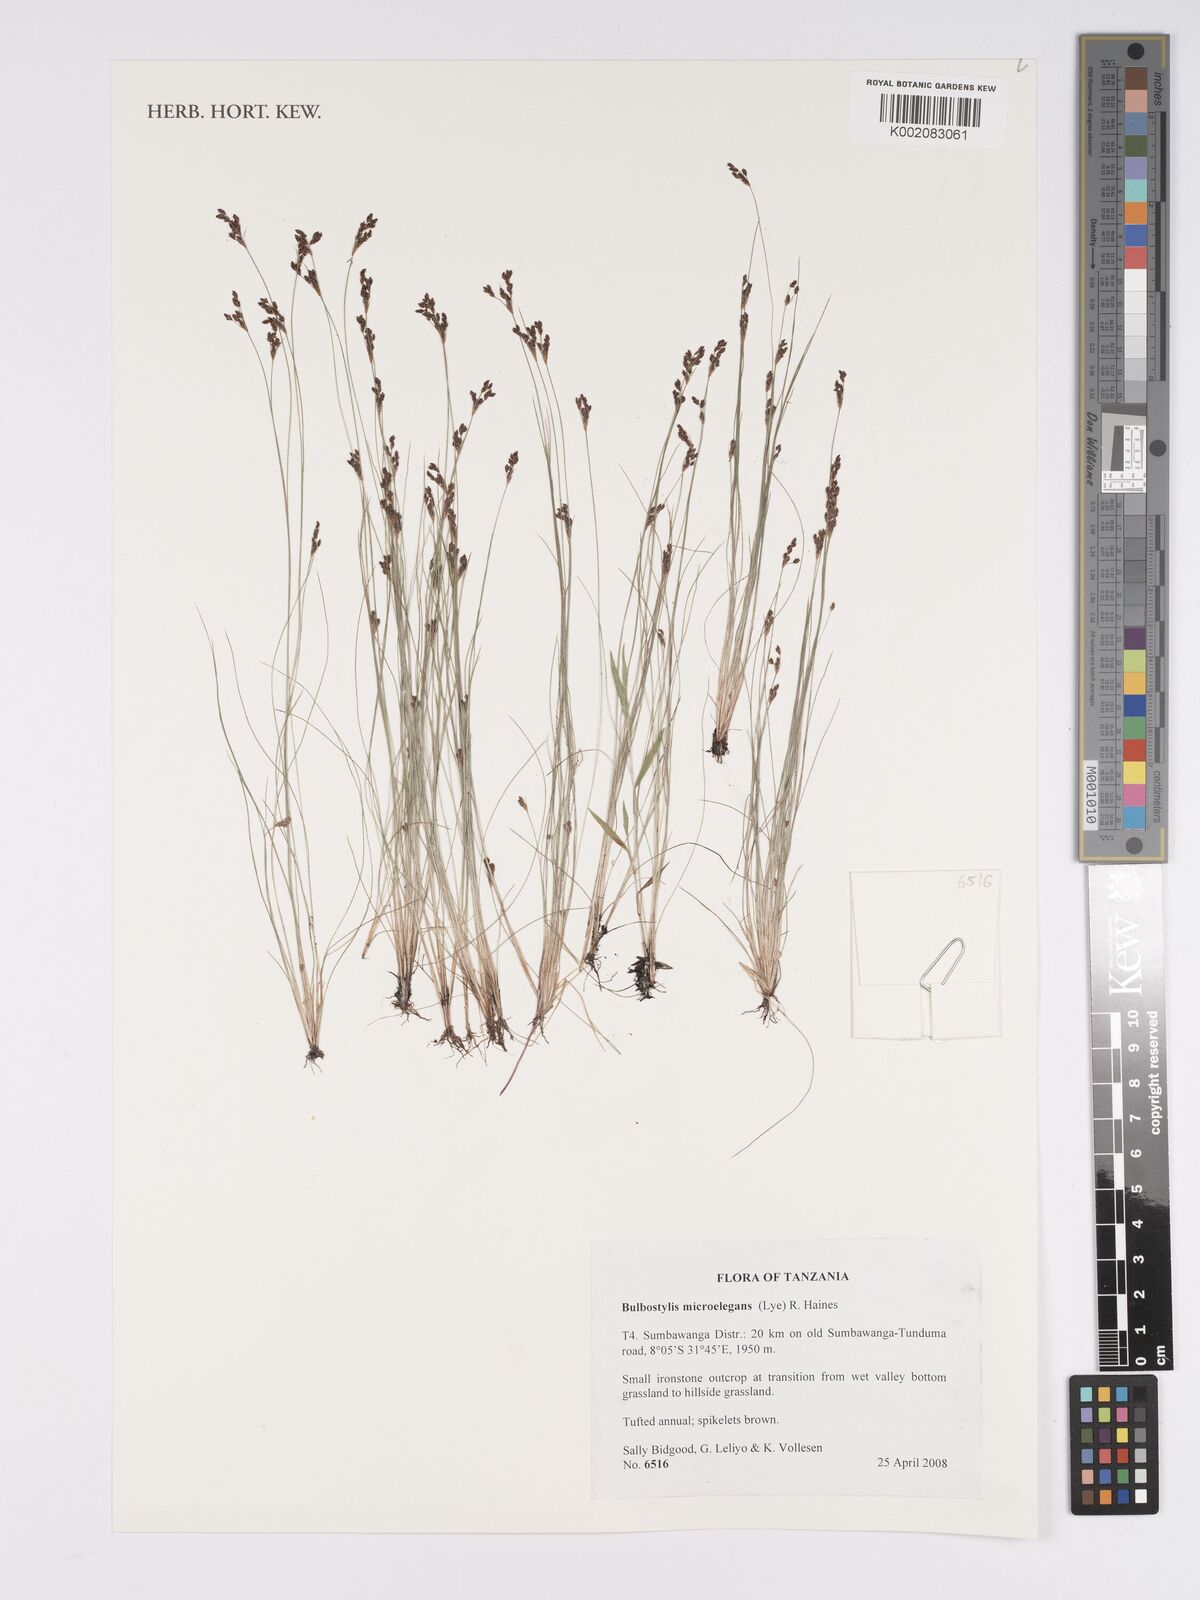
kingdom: Plantae
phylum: Tracheophyta
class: Liliopsida
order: Poales
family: Cyperaceae
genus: Bulbostylis
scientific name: Bulbostylis microelegans
